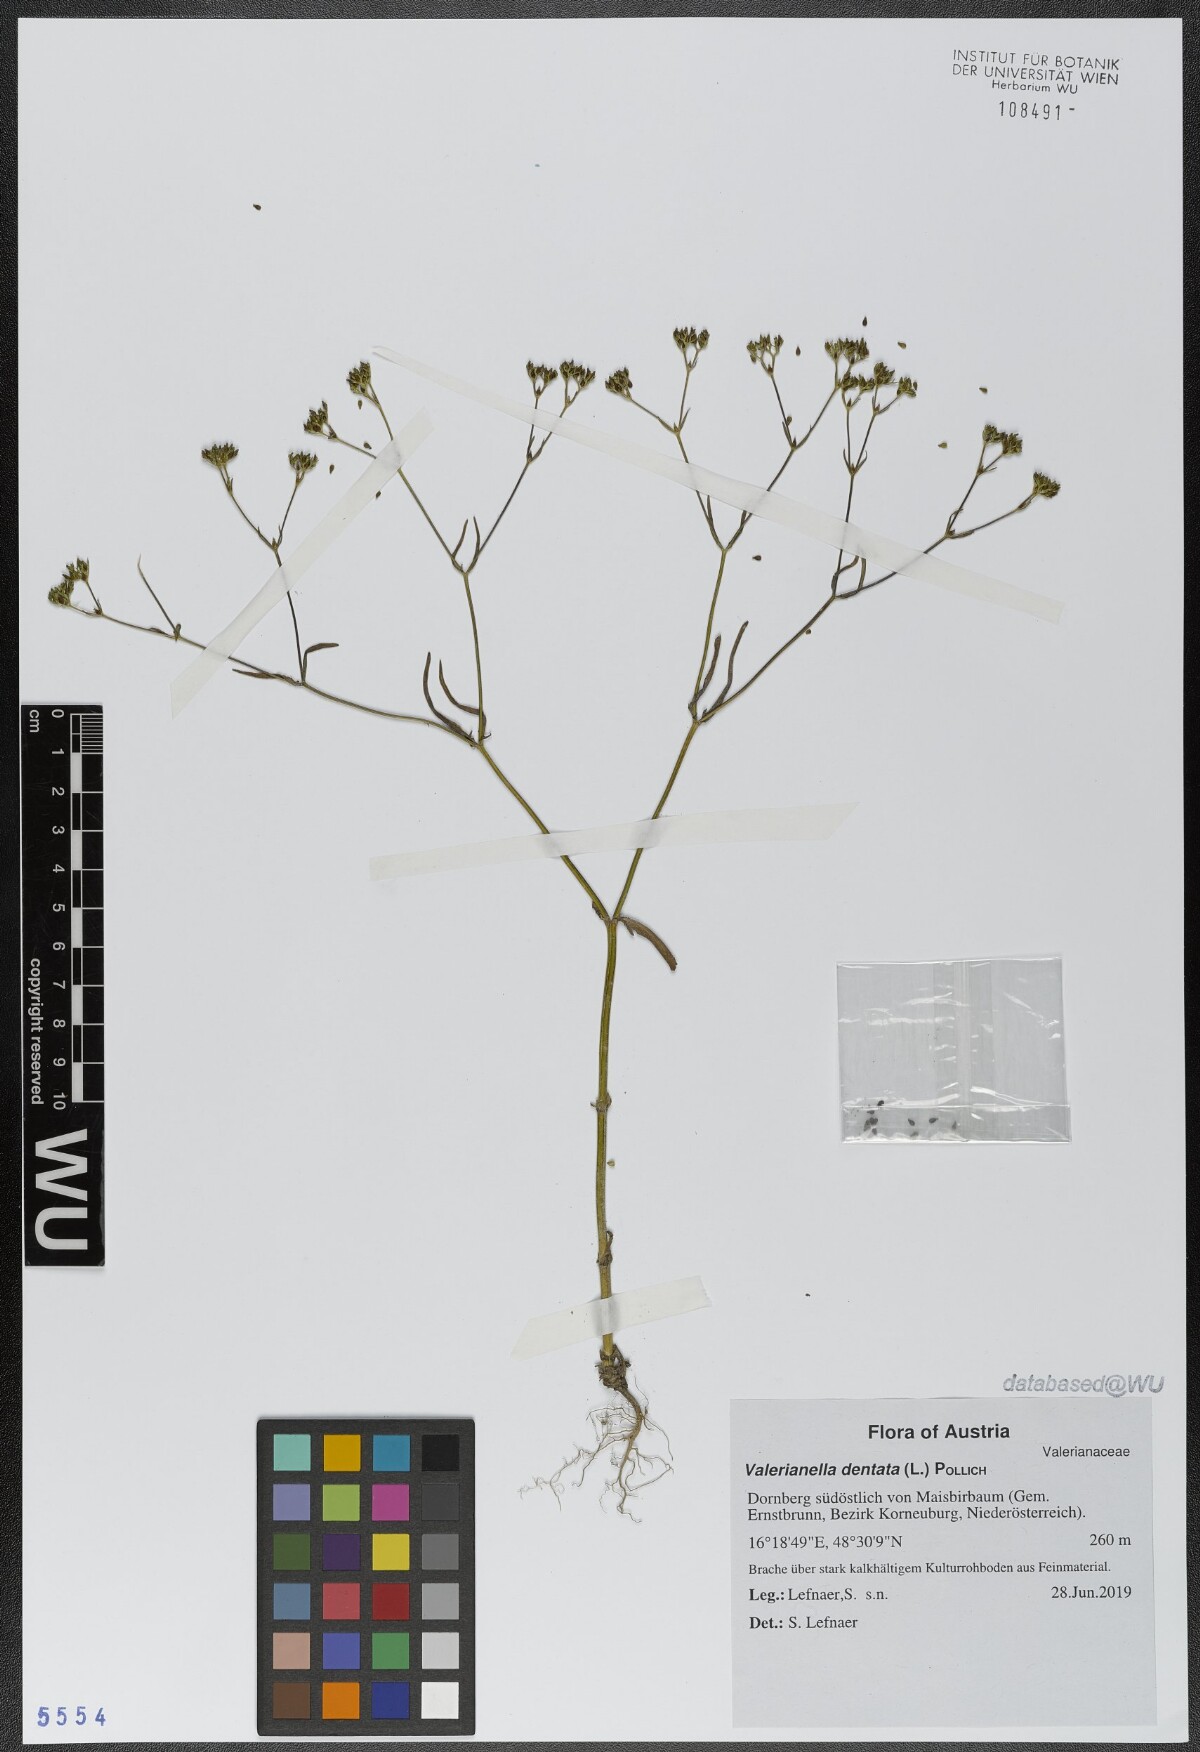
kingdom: Plantae
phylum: Tracheophyta
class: Magnoliopsida
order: Dipsacales
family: Caprifoliaceae
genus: Valerianella
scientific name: Valerianella dentata
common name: Narrow-fruited cornsalad
